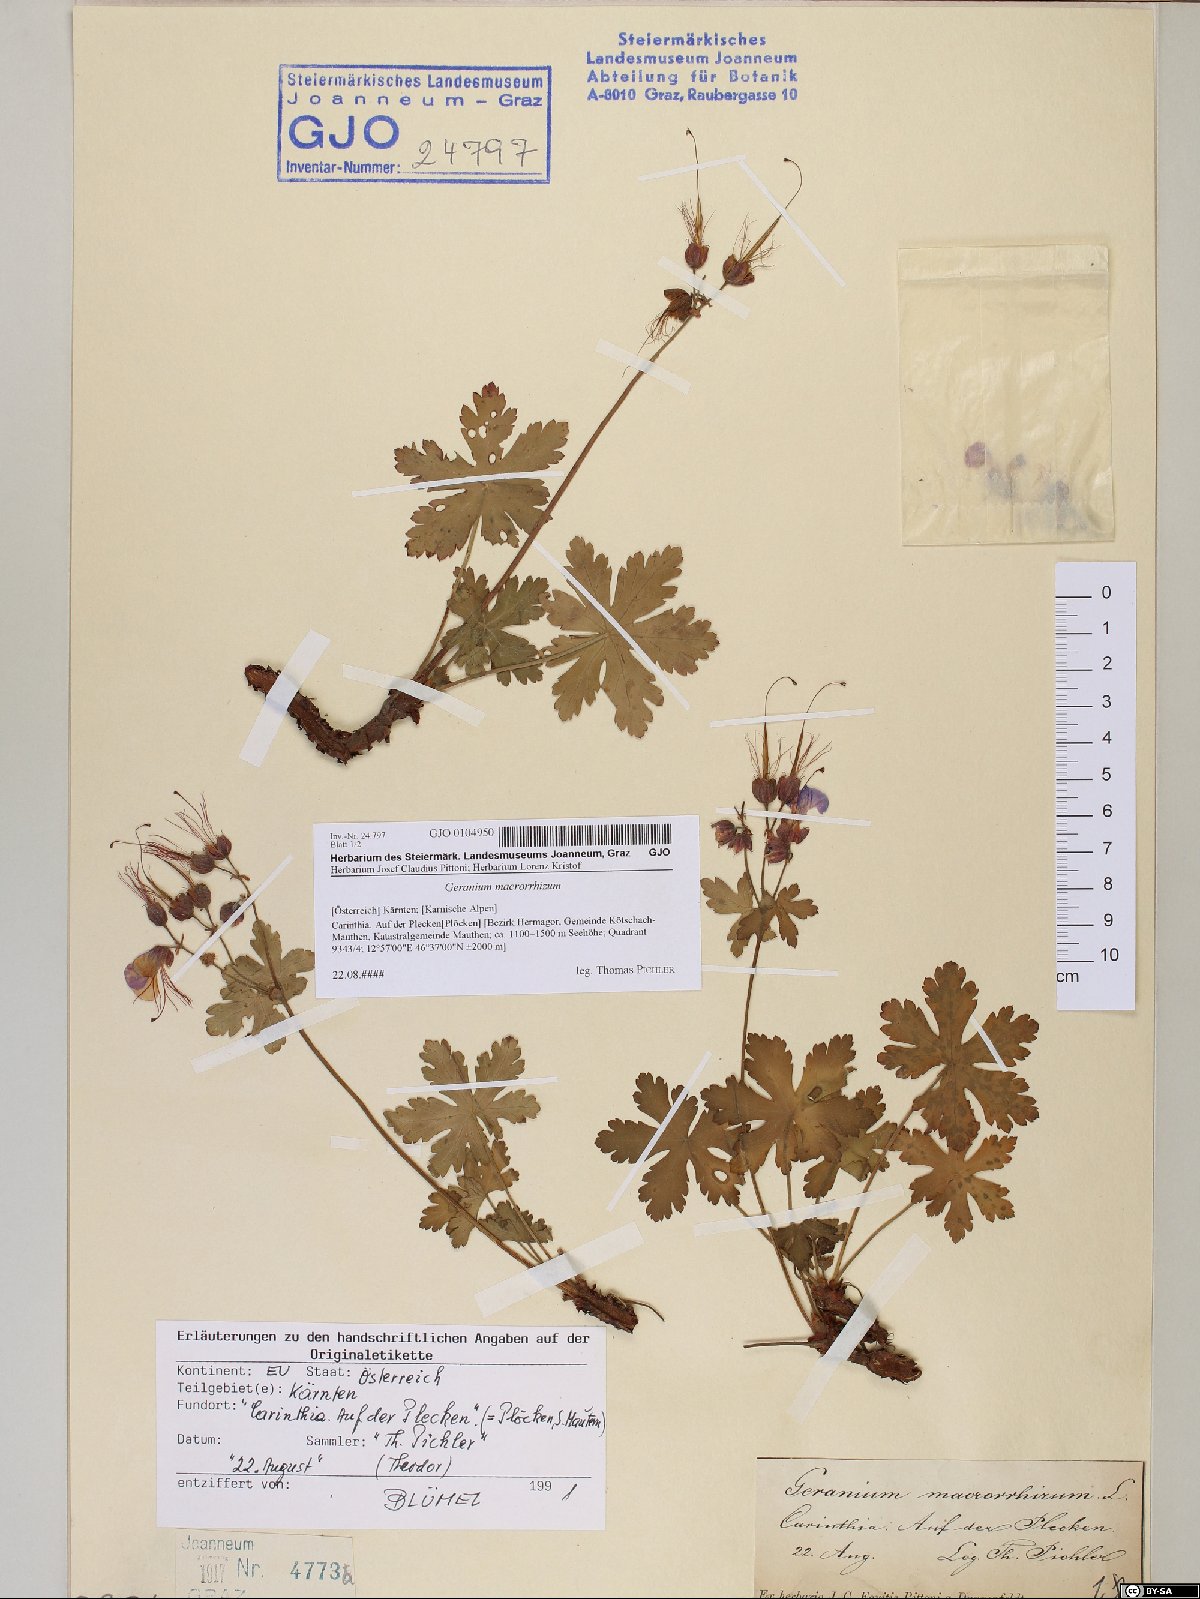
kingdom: Plantae
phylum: Tracheophyta
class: Magnoliopsida
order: Geraniales
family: Geraniaceae
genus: Geranium
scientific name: Geranium macrorrhizum
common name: Rock crane's-bill
